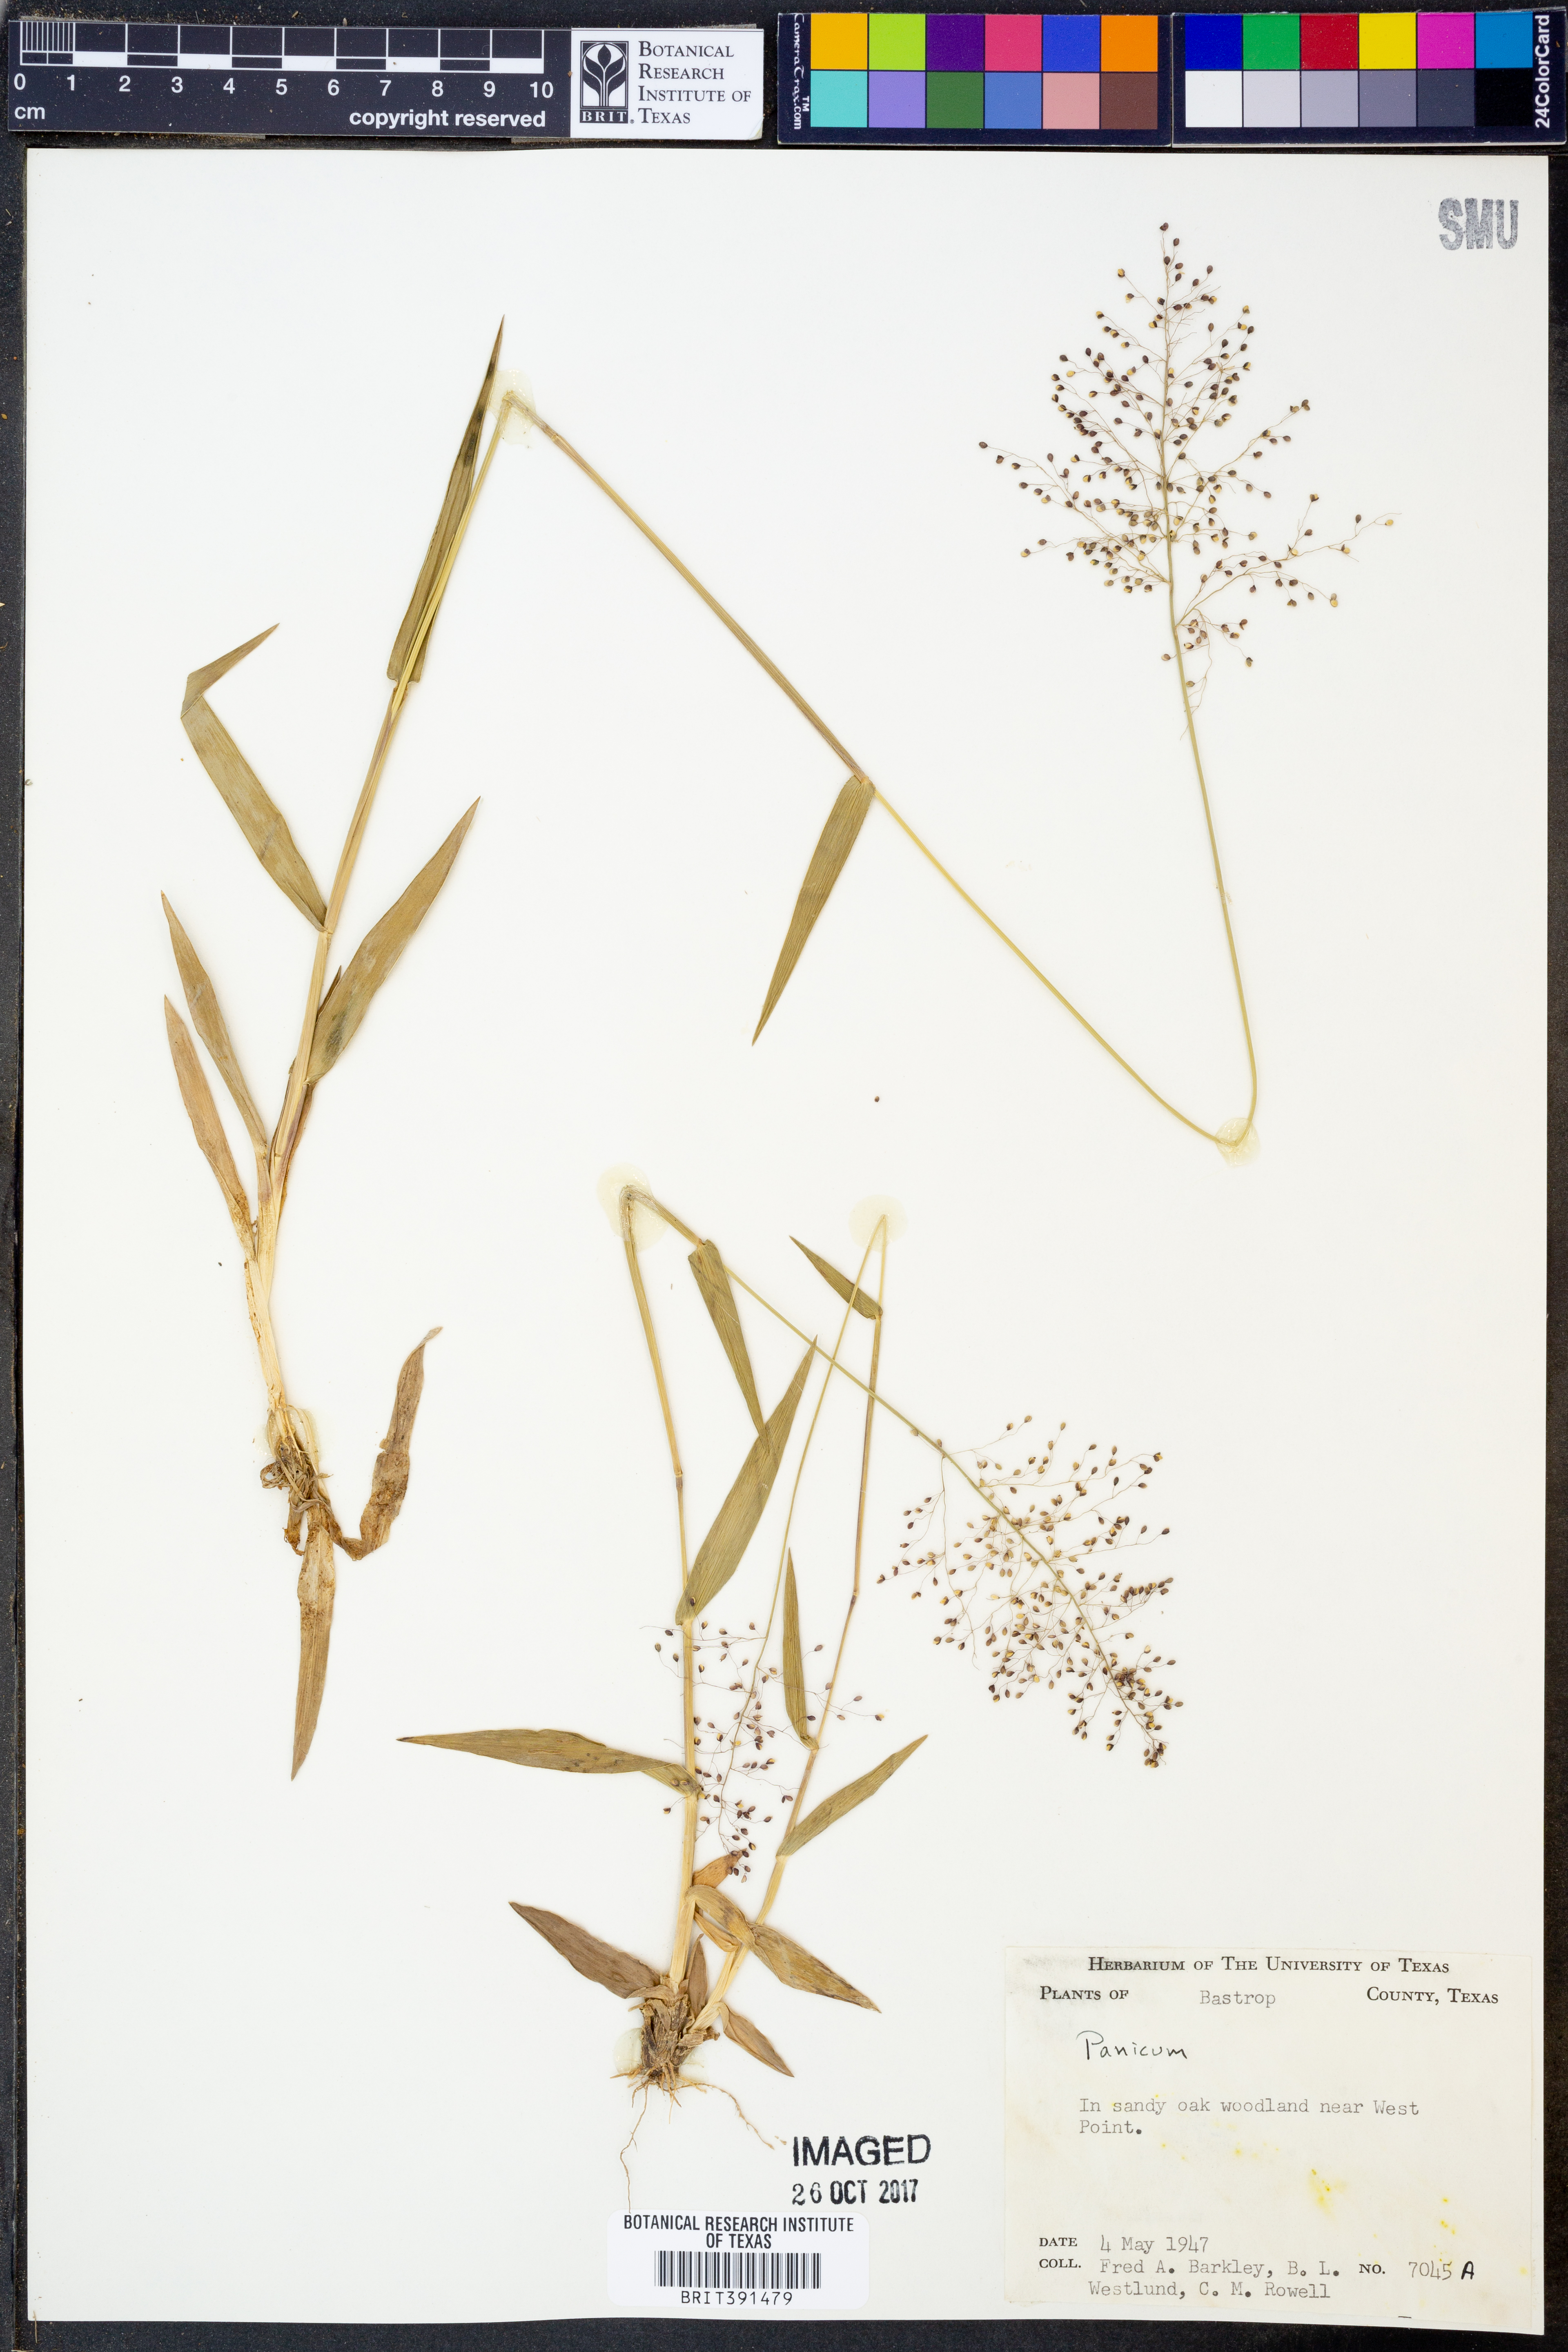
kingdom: Plantae
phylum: Tracheophyta
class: Liliopsida
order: Poales
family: Poaceae
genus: Panicum
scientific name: Panicum
